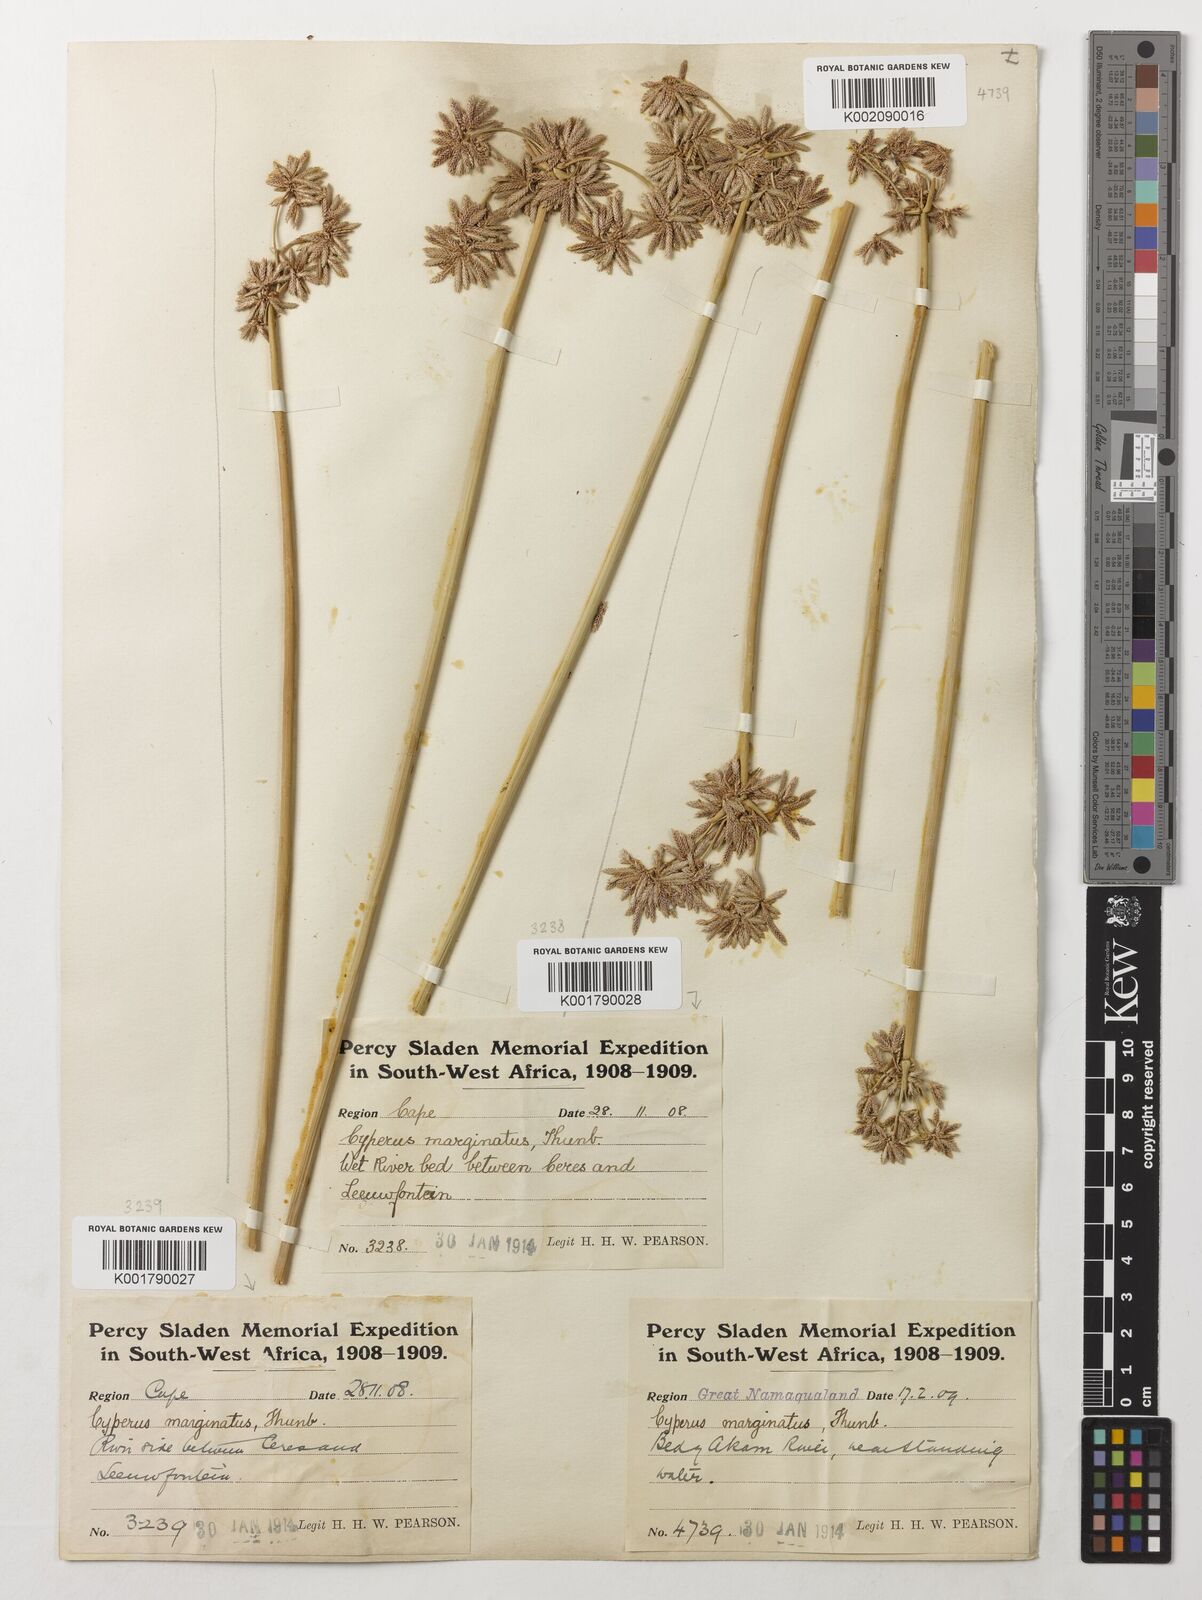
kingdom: Plantae
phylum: Tracheophyta
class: Liliopsida
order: Poales
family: Cyperaceae
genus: Cyperus
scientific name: Cyperus marginatus
